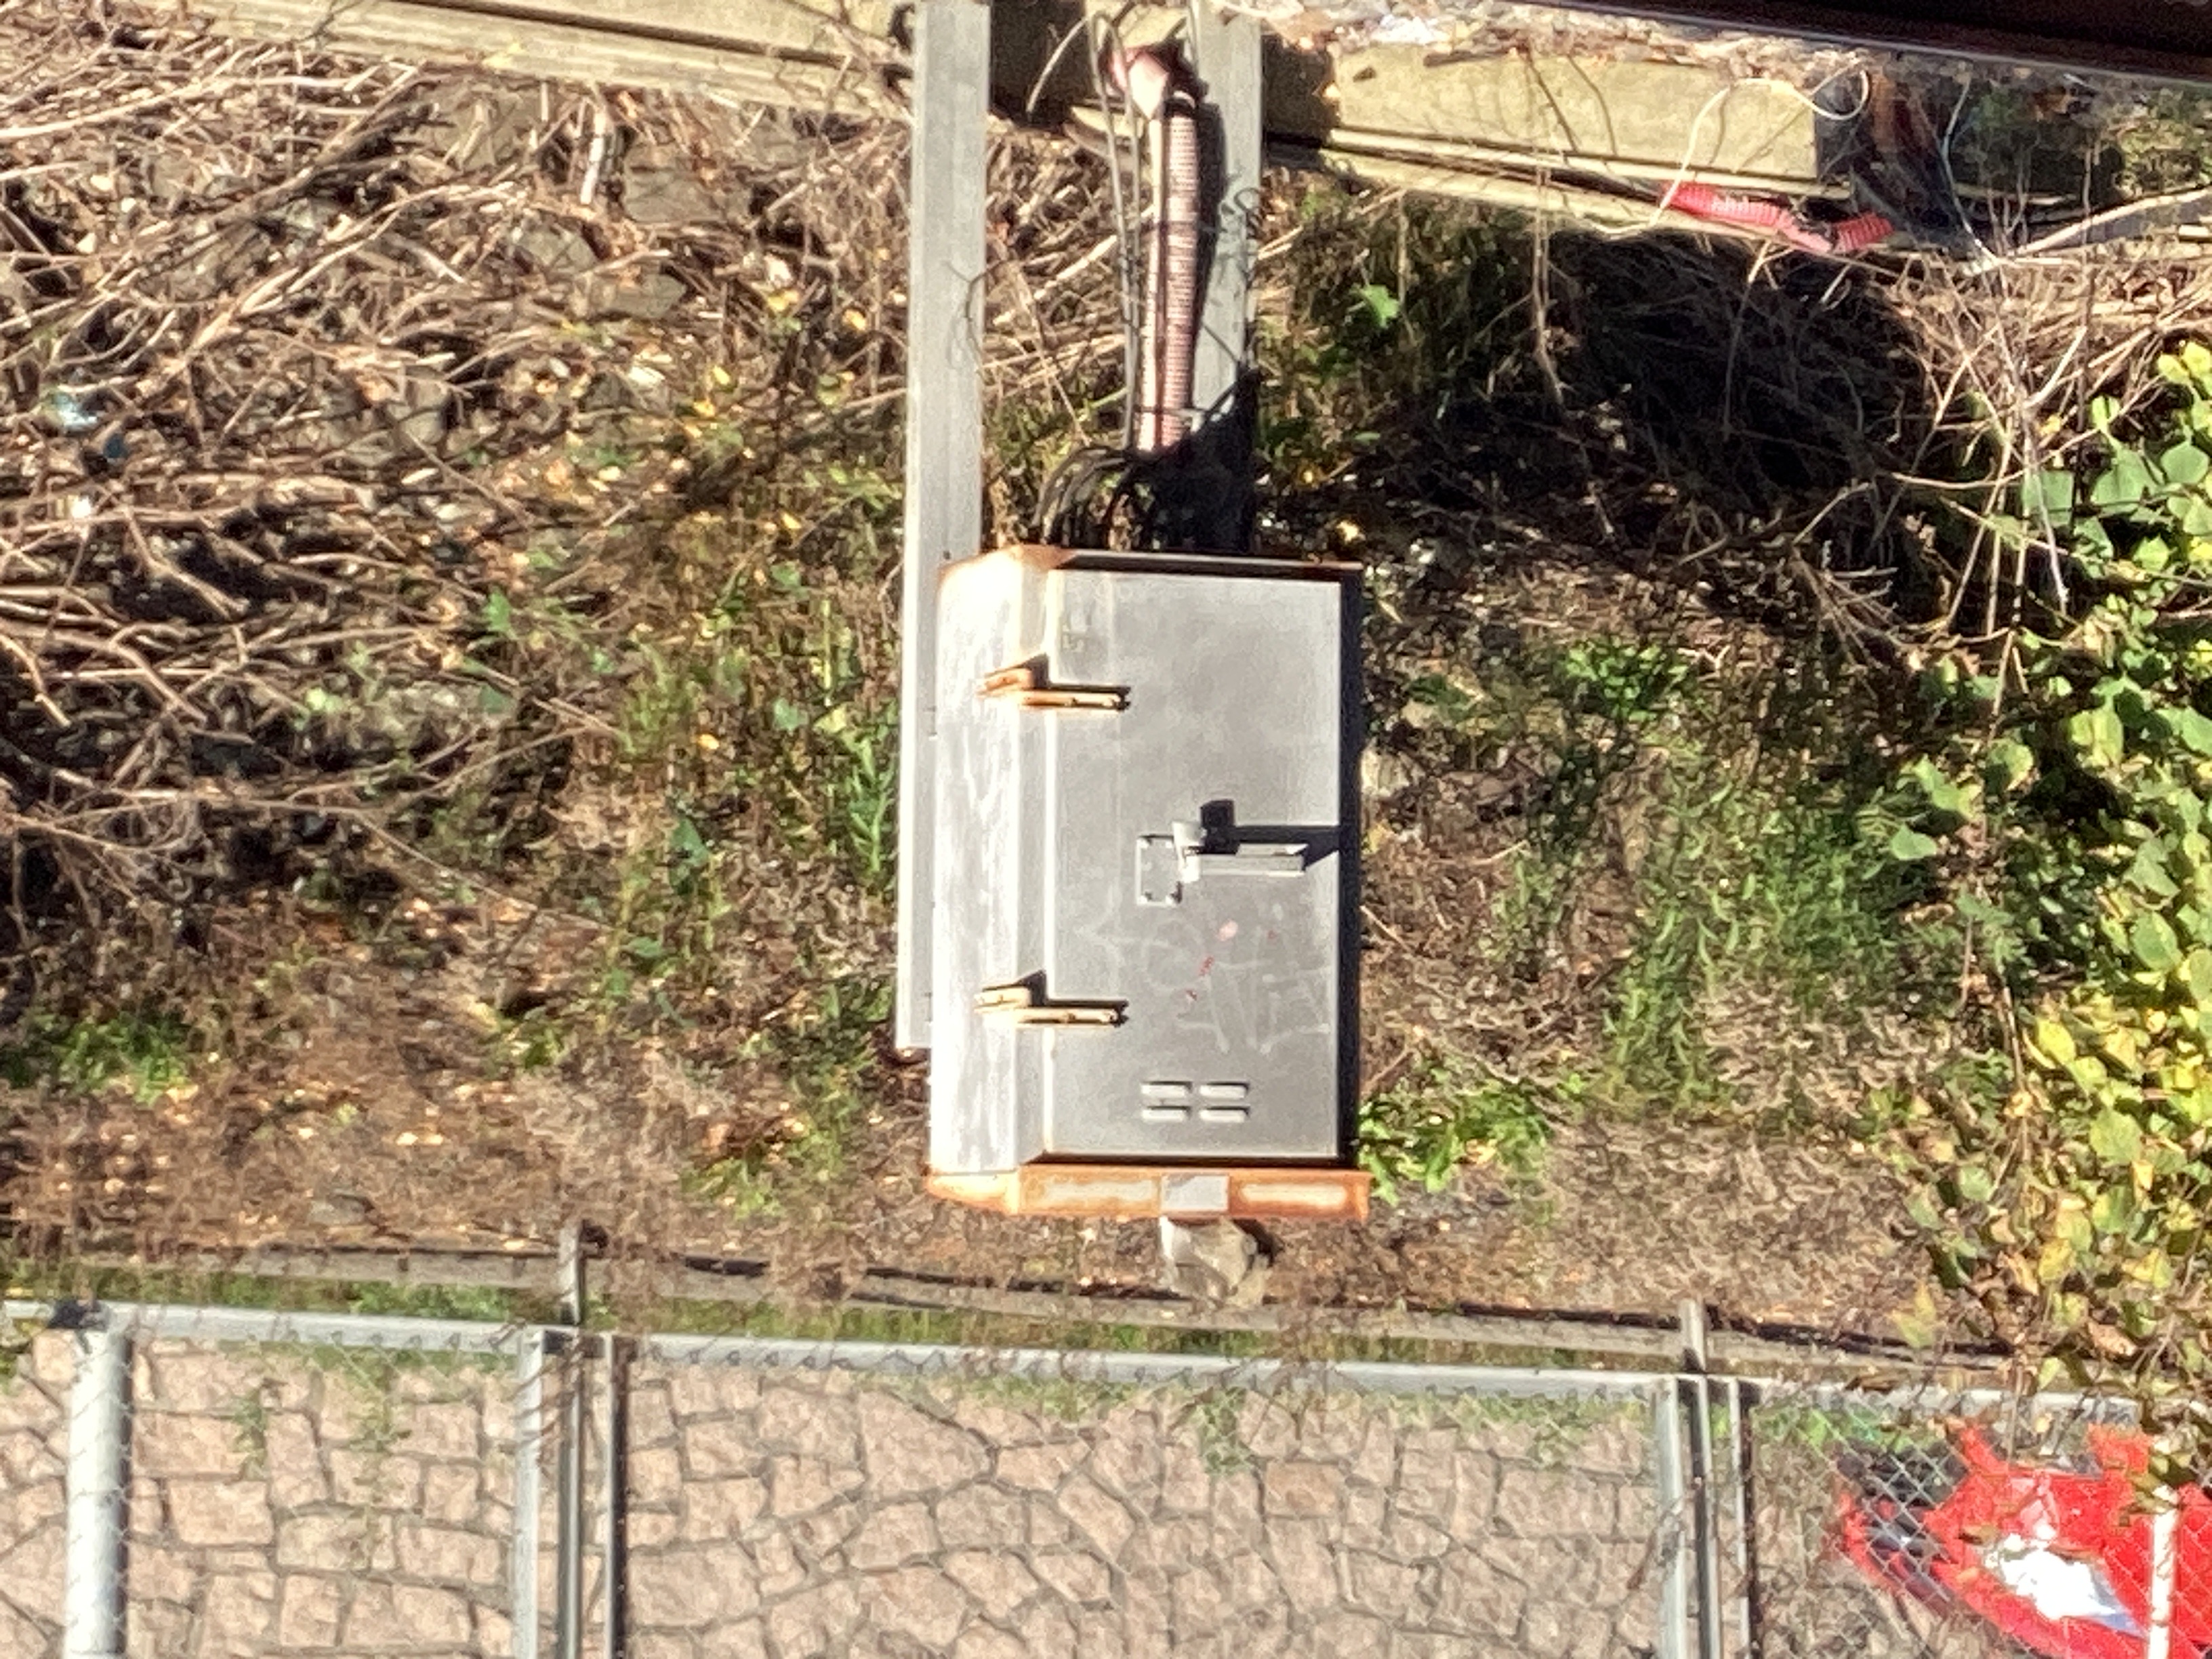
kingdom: Plantae
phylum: Tracheophyta
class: Magnoliopsida
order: Asterales
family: Asteraceae
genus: Solidago
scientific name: Solidago canadensis
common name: kanadagullris
